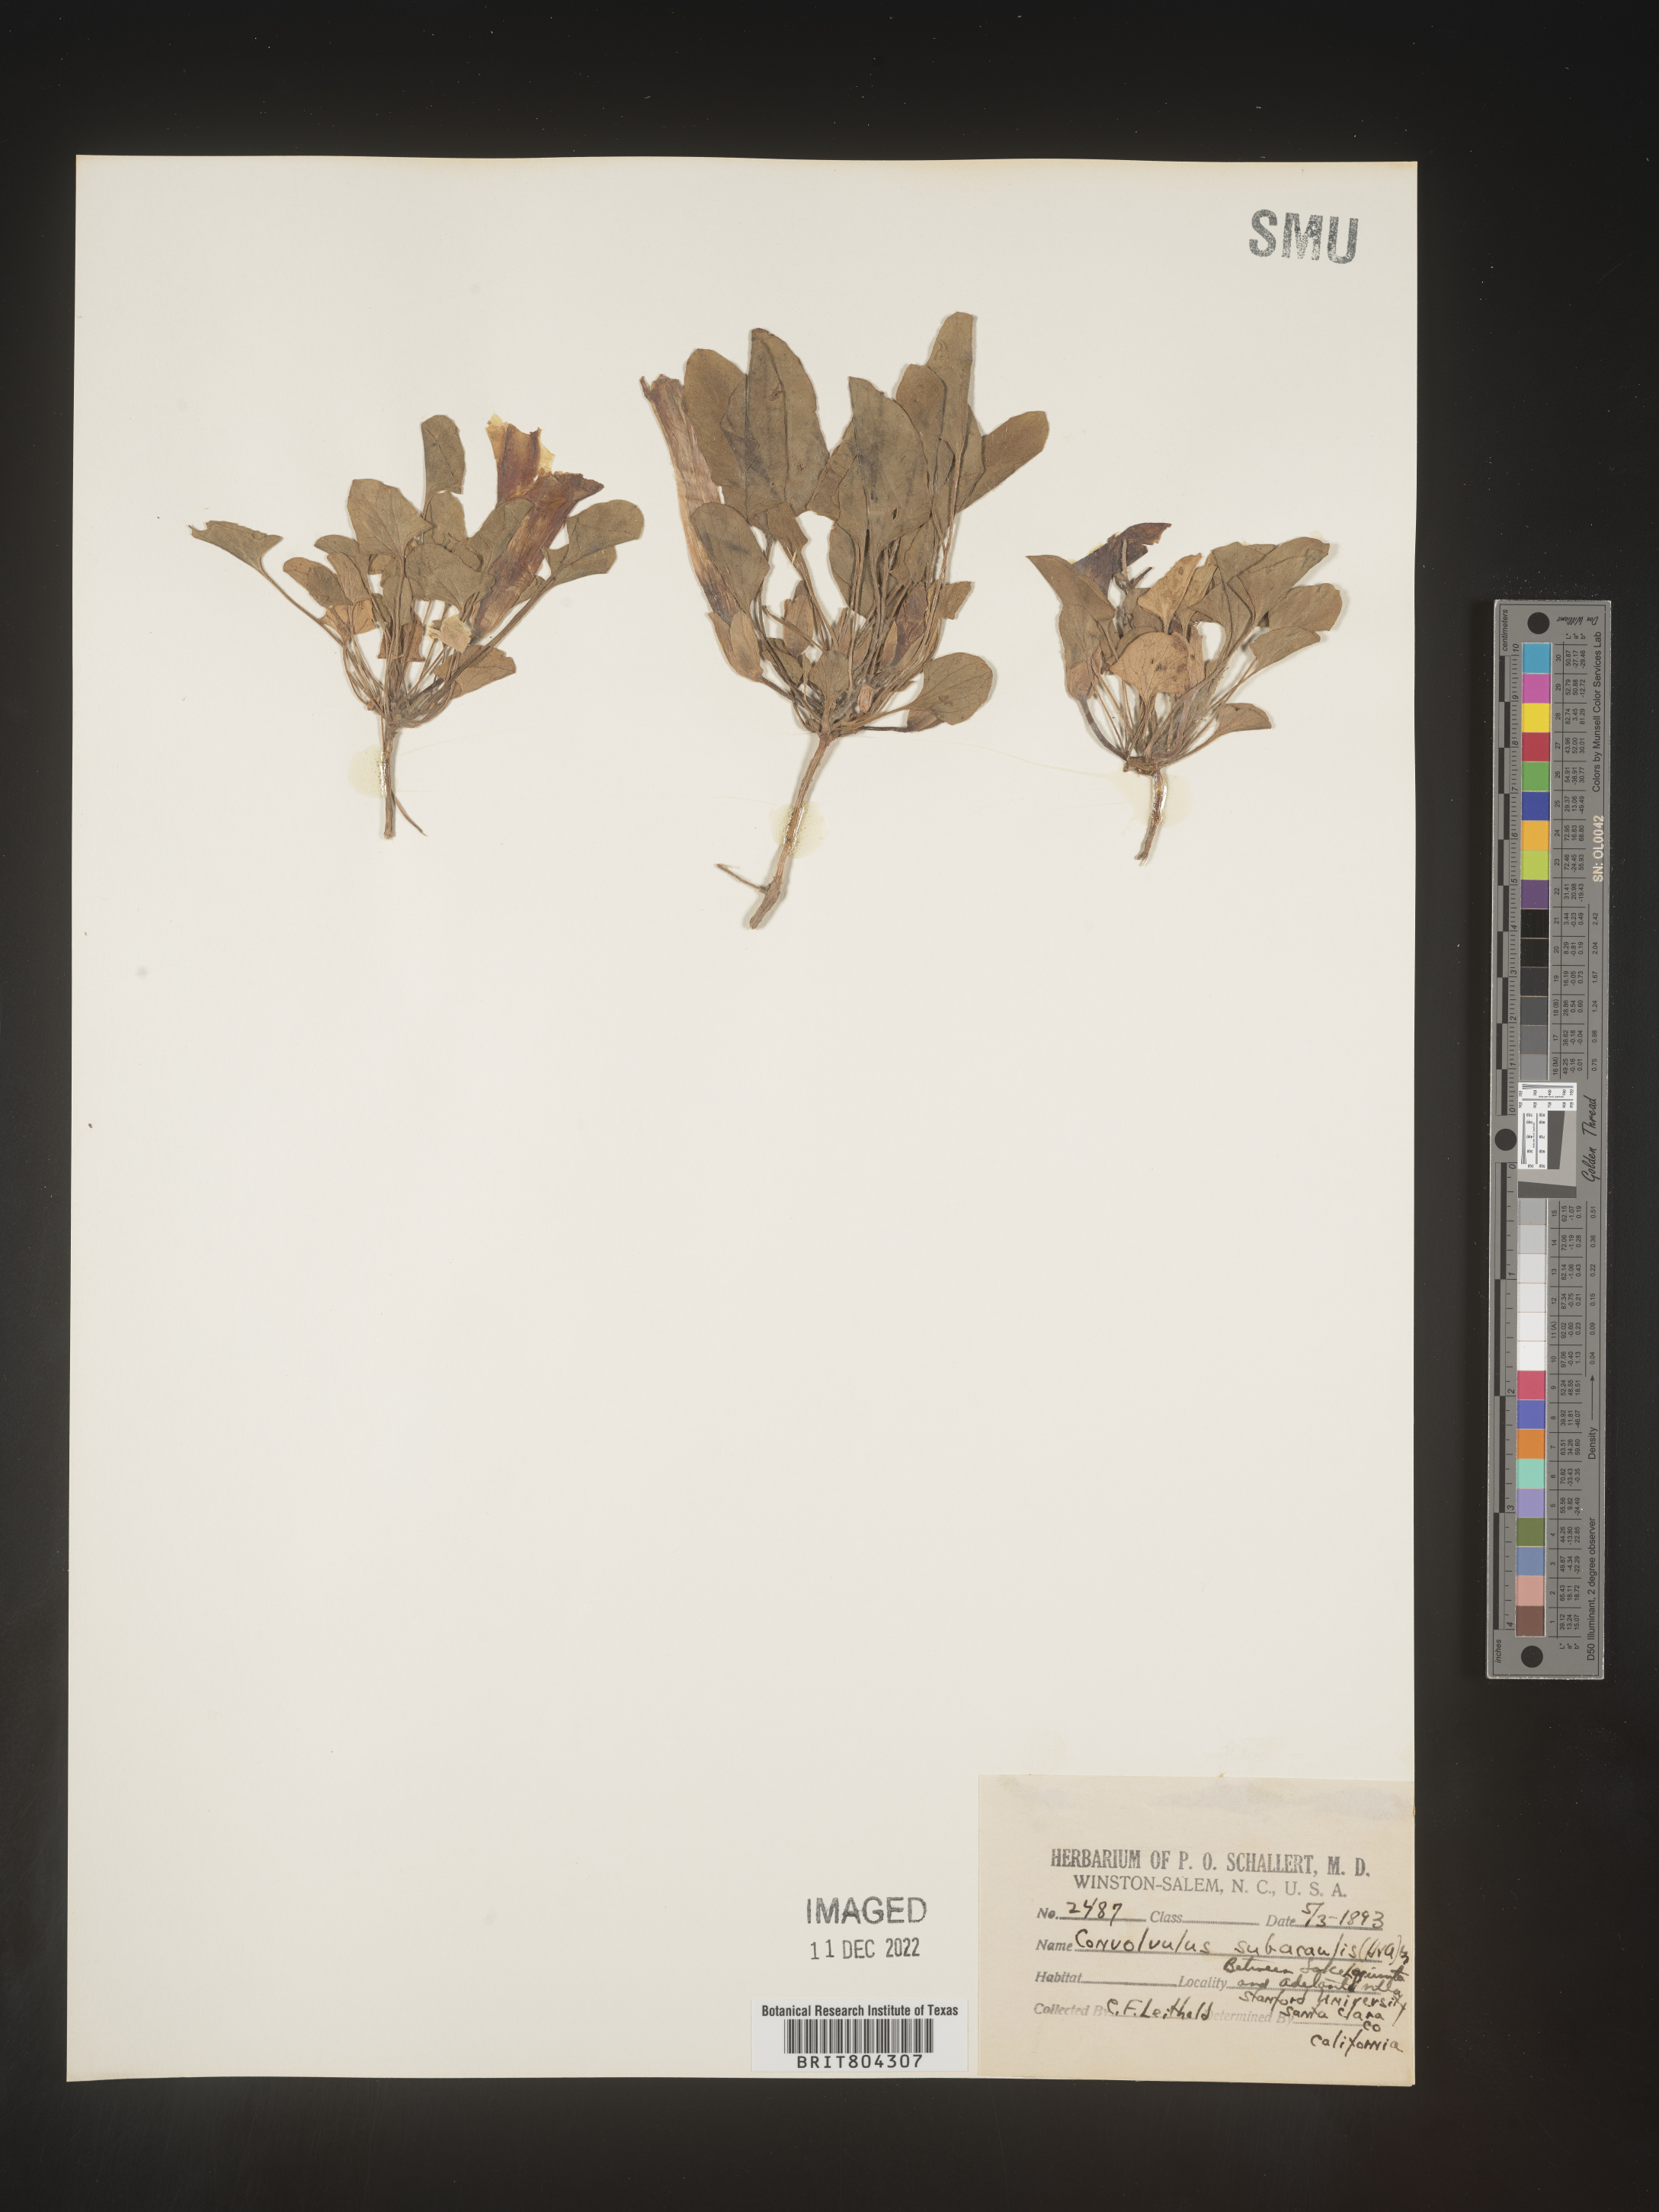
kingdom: Plantae
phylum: Tracheophyta
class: Magnoliopsida
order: Solanales
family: Convolvulaceae
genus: Calystegia
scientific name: Calystegia
